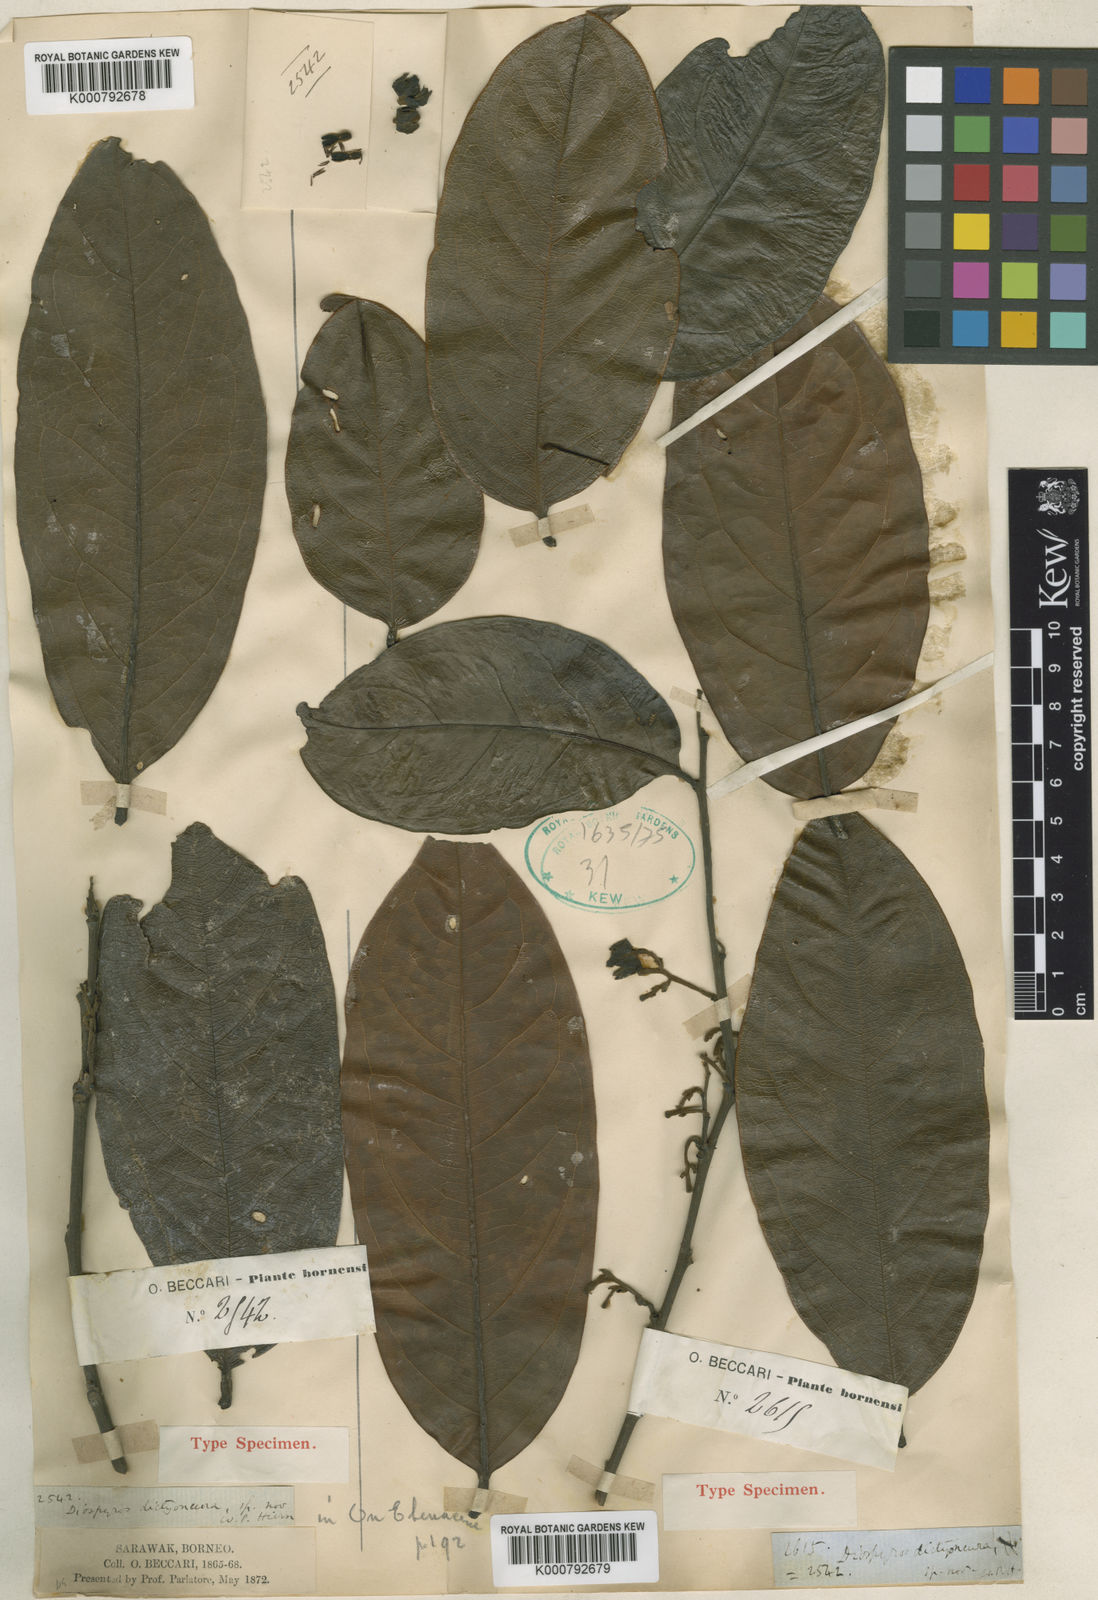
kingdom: Plantae
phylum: Tracheophyta
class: Magnoliopsida
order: Ericales
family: Ebenaceae
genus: Diospyros
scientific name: Diospyros dictyoneura
